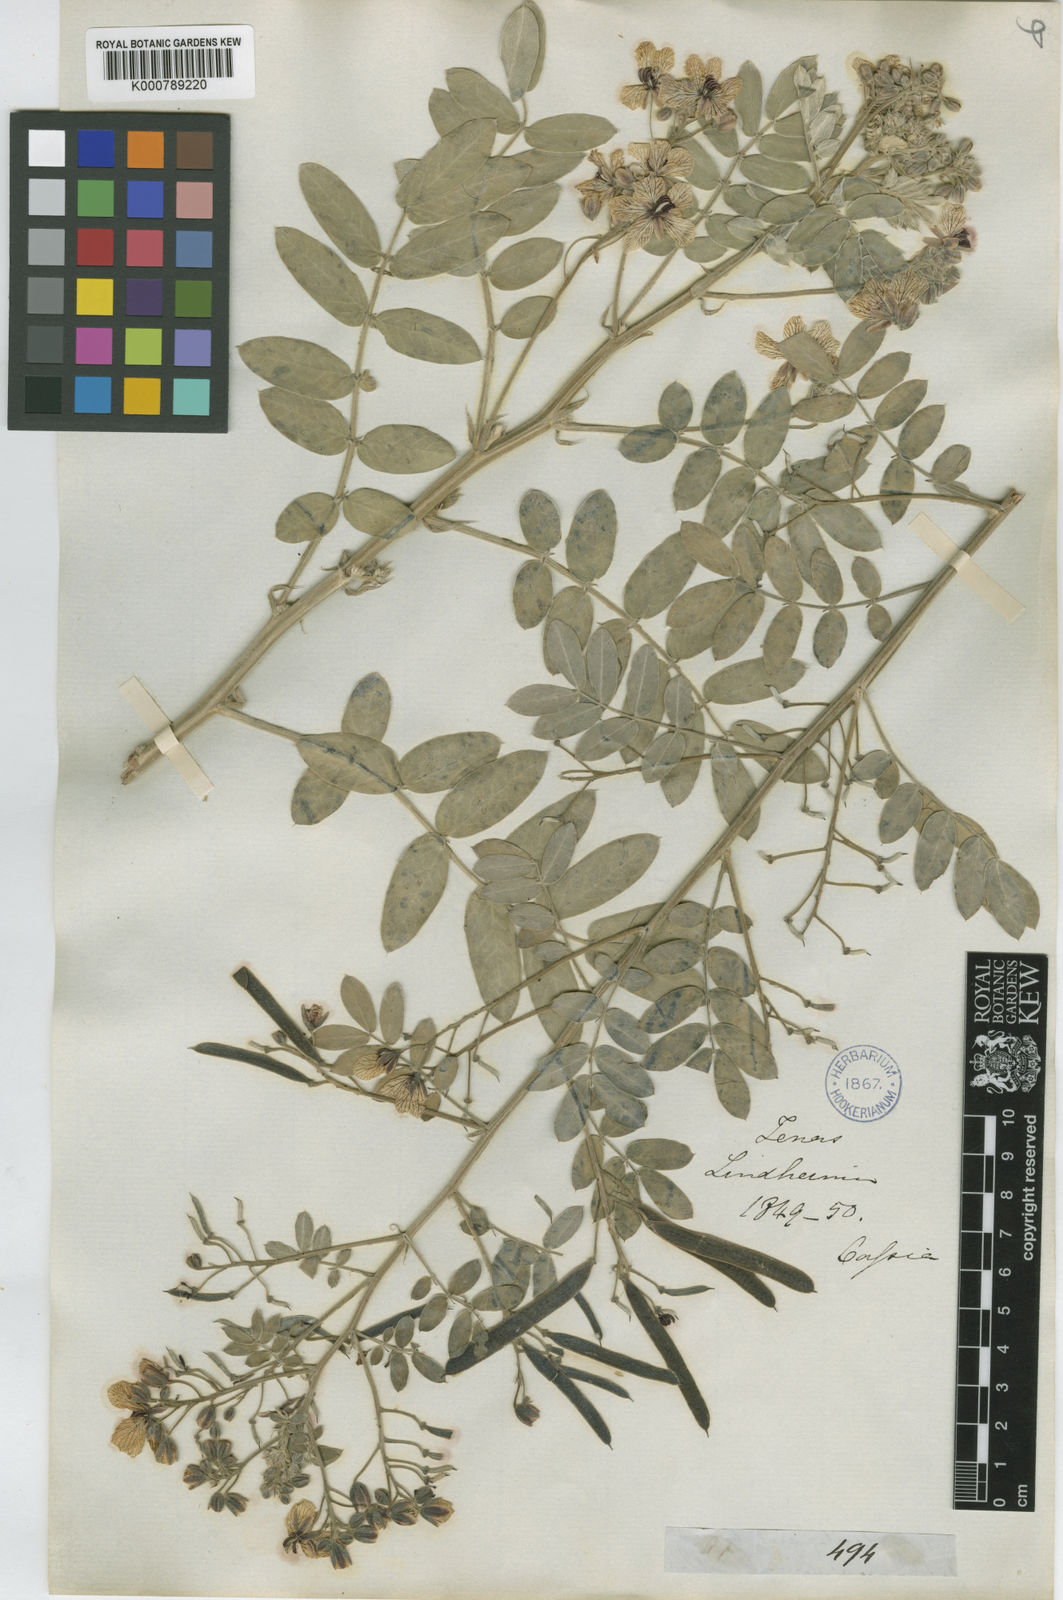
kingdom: Plantae
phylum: Tracheophyta
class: Magnoliopsida
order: Fabales
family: Fabaceae
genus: Senna
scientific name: Senna lindheimeriana
